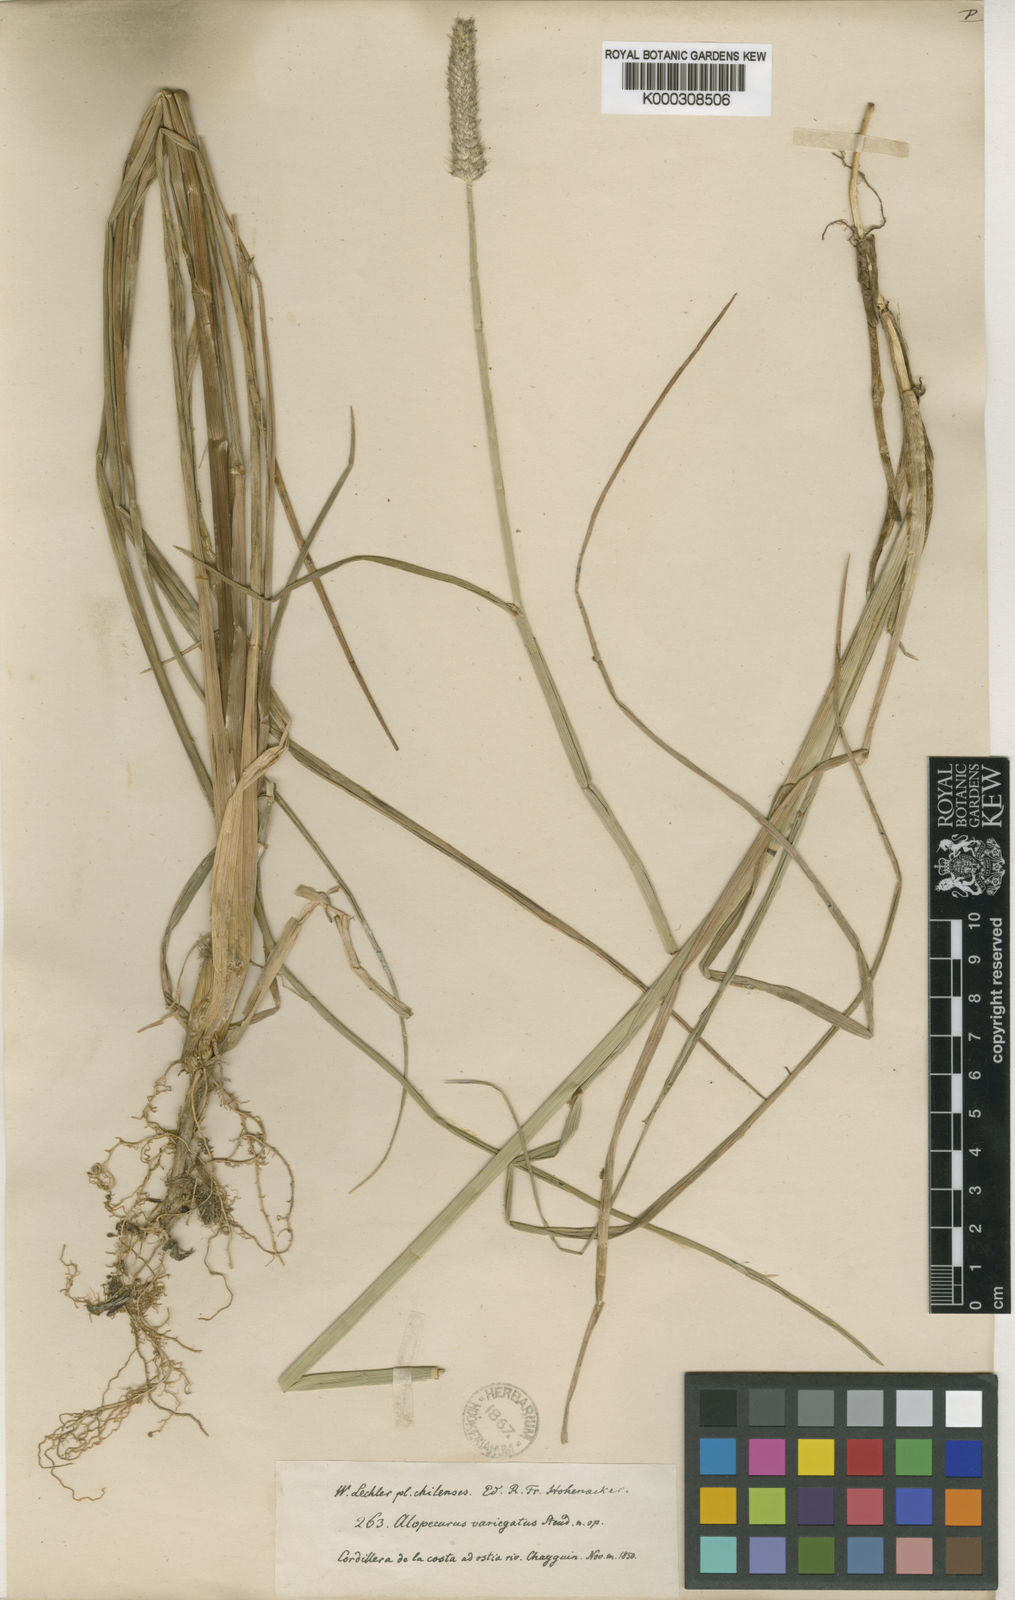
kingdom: Plantae
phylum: Tracheophyta
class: Liliopsida
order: Poales
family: Poaceae
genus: Alopecurus
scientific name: Alopecurus magellanicus
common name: Alpine foxtail
